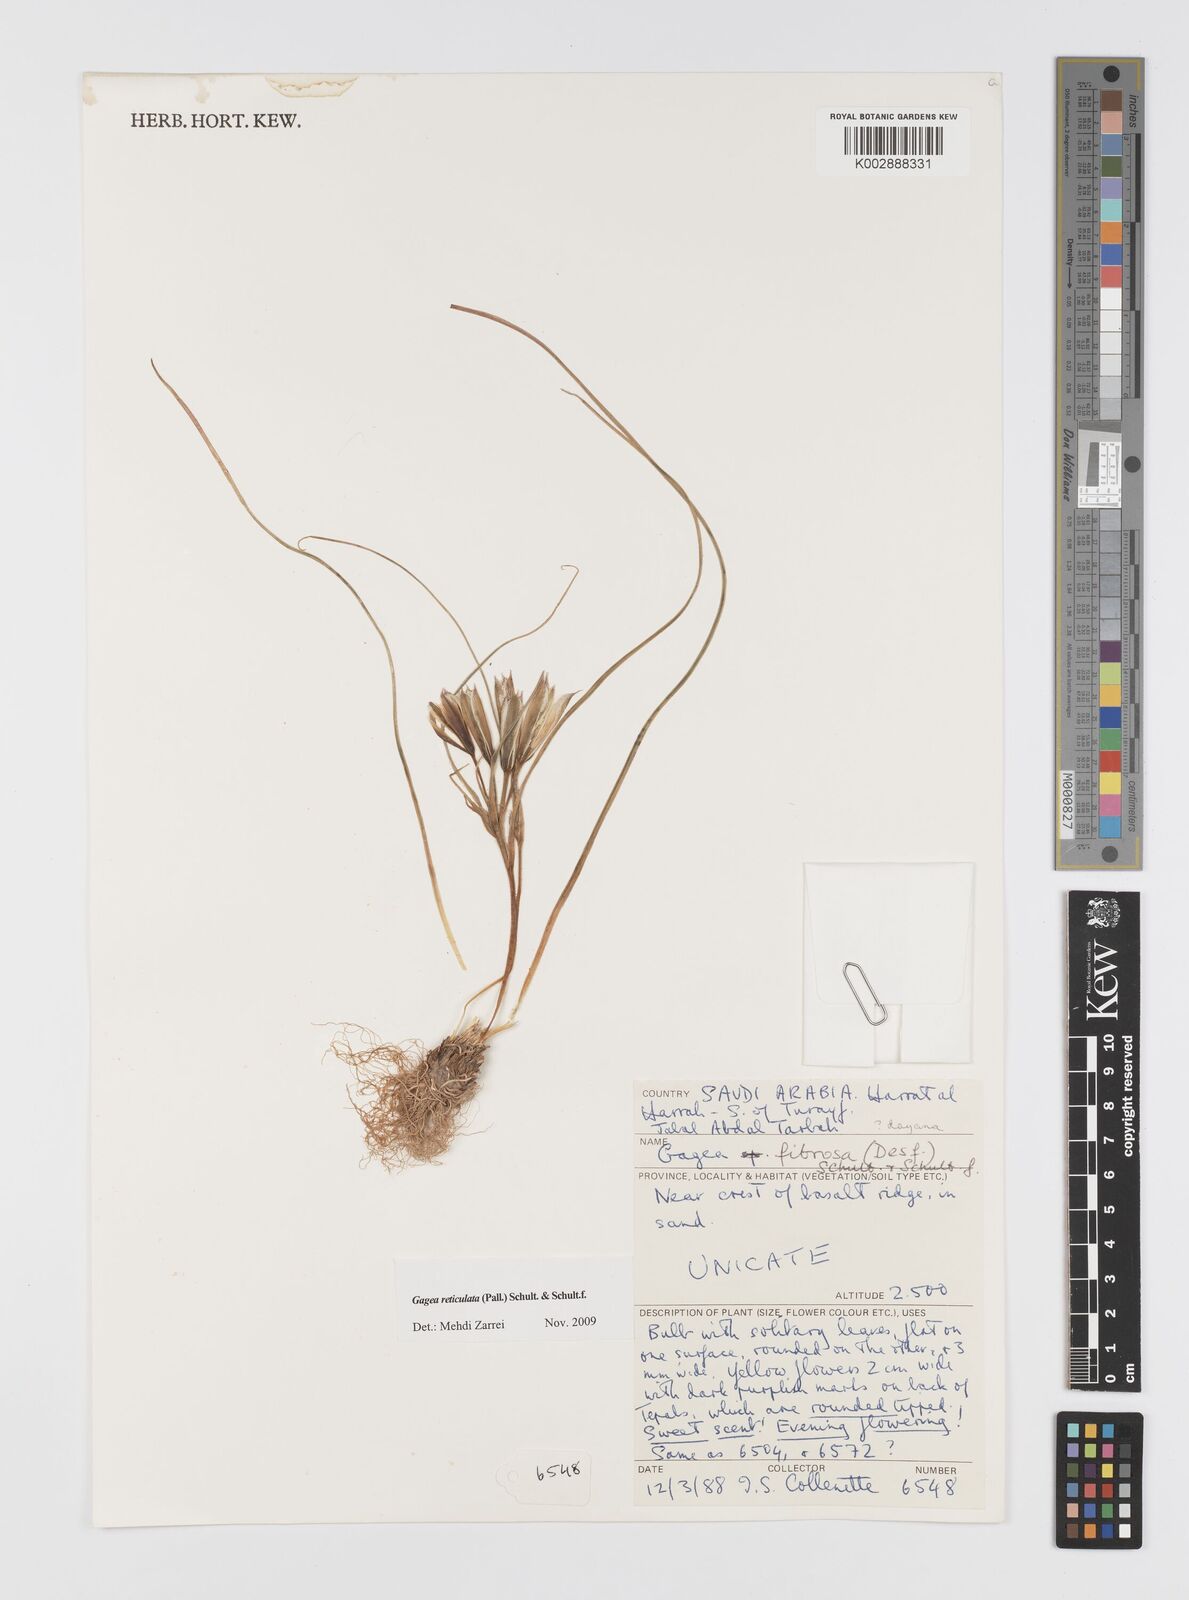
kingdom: Plantae
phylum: Tracheophyta
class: Liliopsida
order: Liliales
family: Liliaceae
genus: Gagea
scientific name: Gagea reticulata
